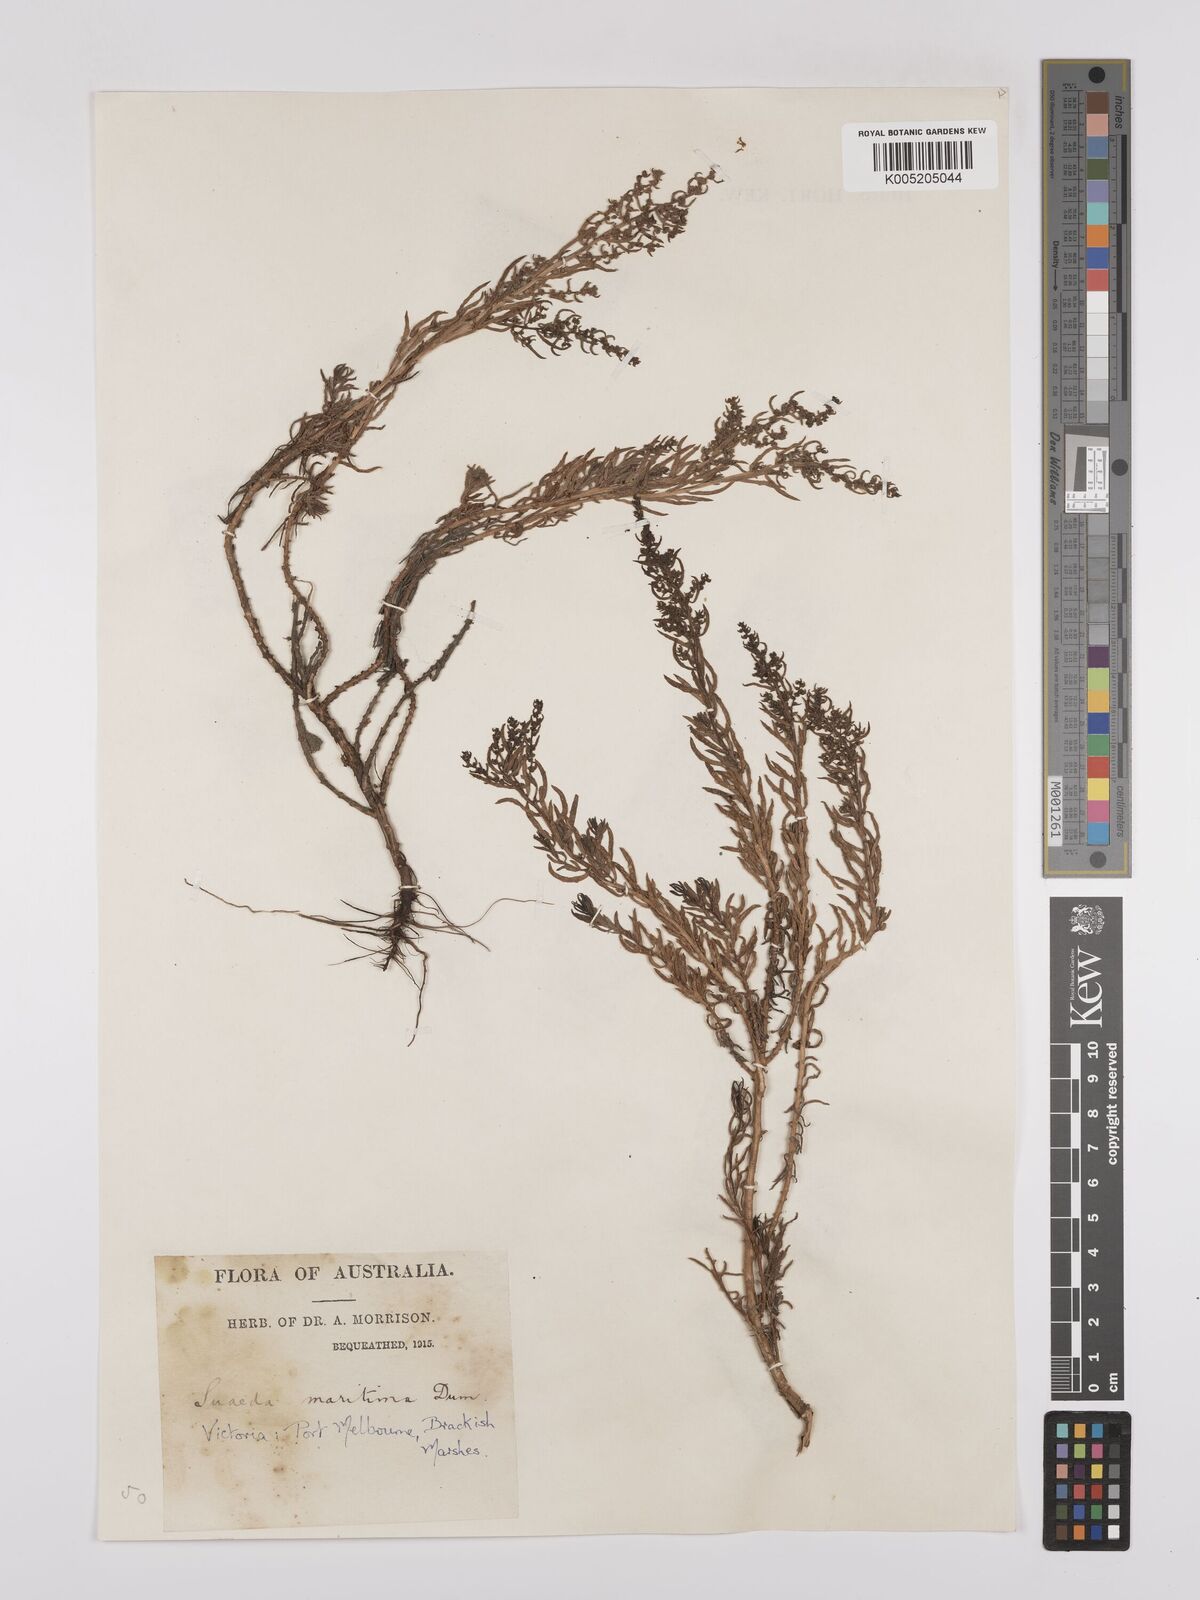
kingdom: Plantae
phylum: Tracheophyta
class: Magnoliopsida
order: Caryophyllales
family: Amaranthaceae
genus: Suaeda
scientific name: Suaeda australis
